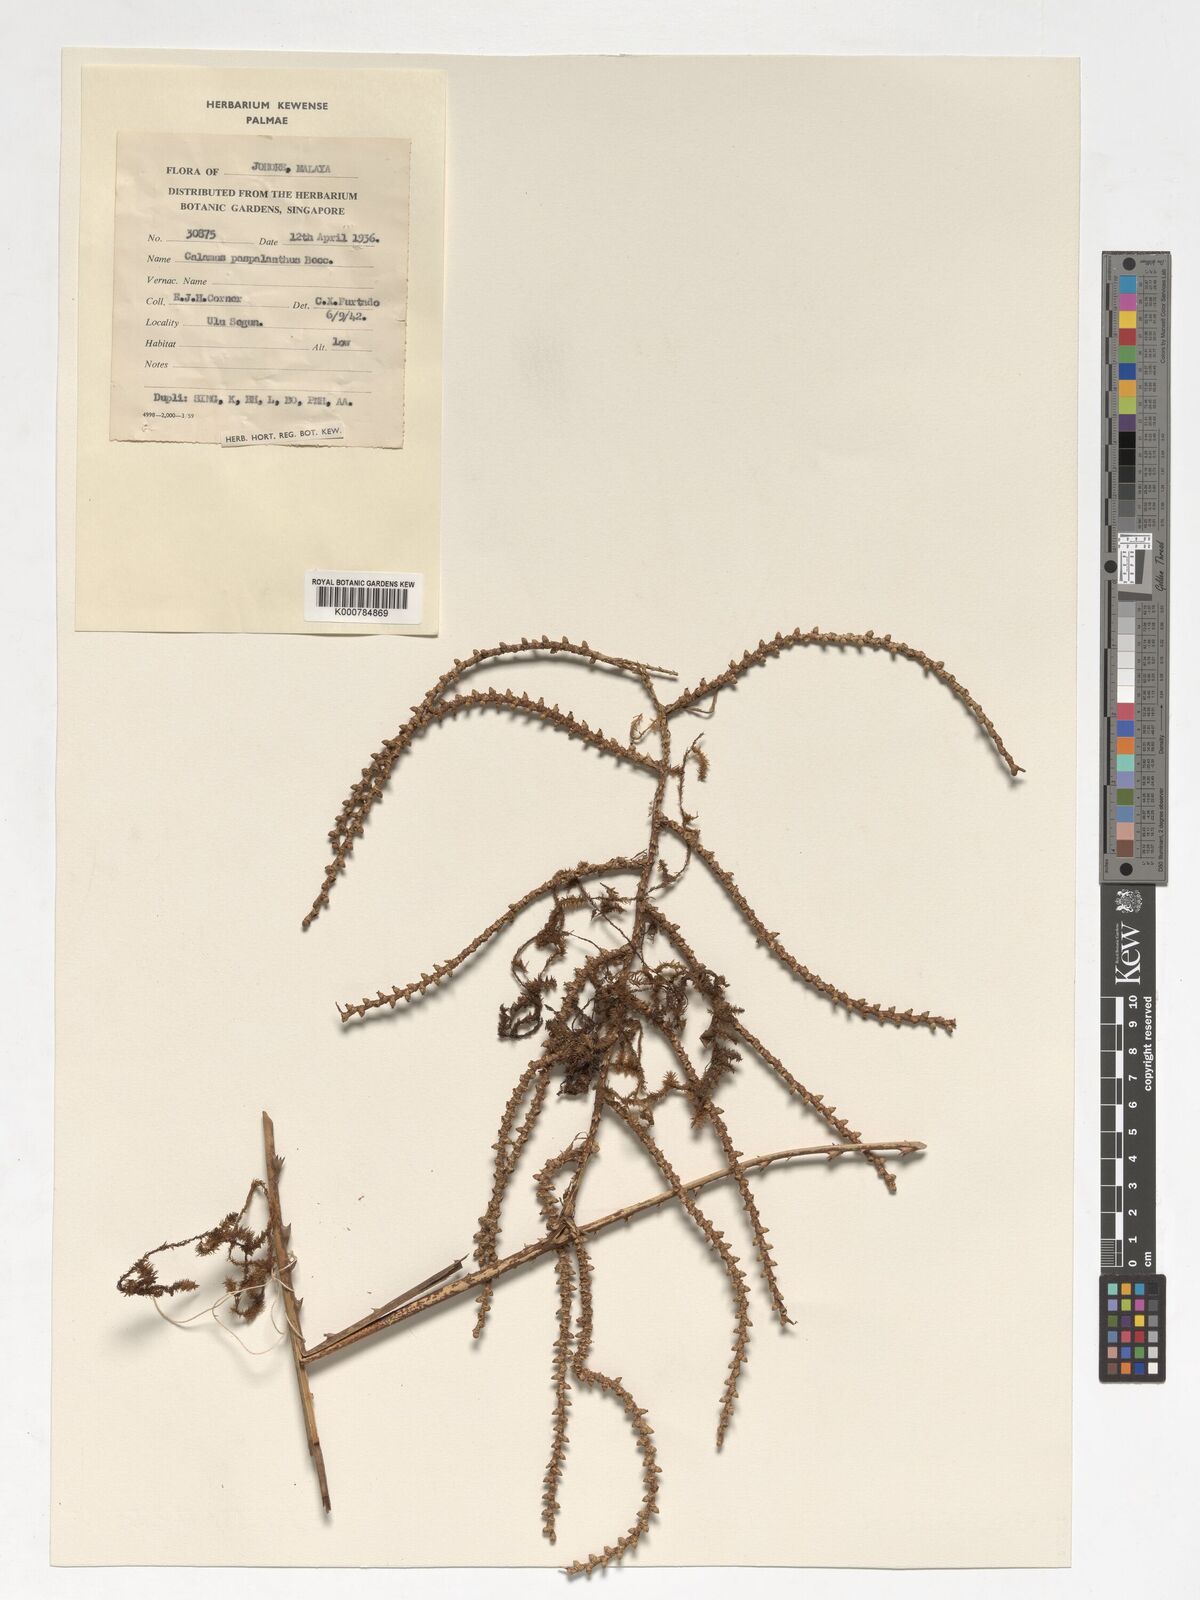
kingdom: Plantae
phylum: Tracheophyta
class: Liliopsida
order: Arecales
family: Arecaceae
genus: Calamus
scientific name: Calamus paspalanthus
